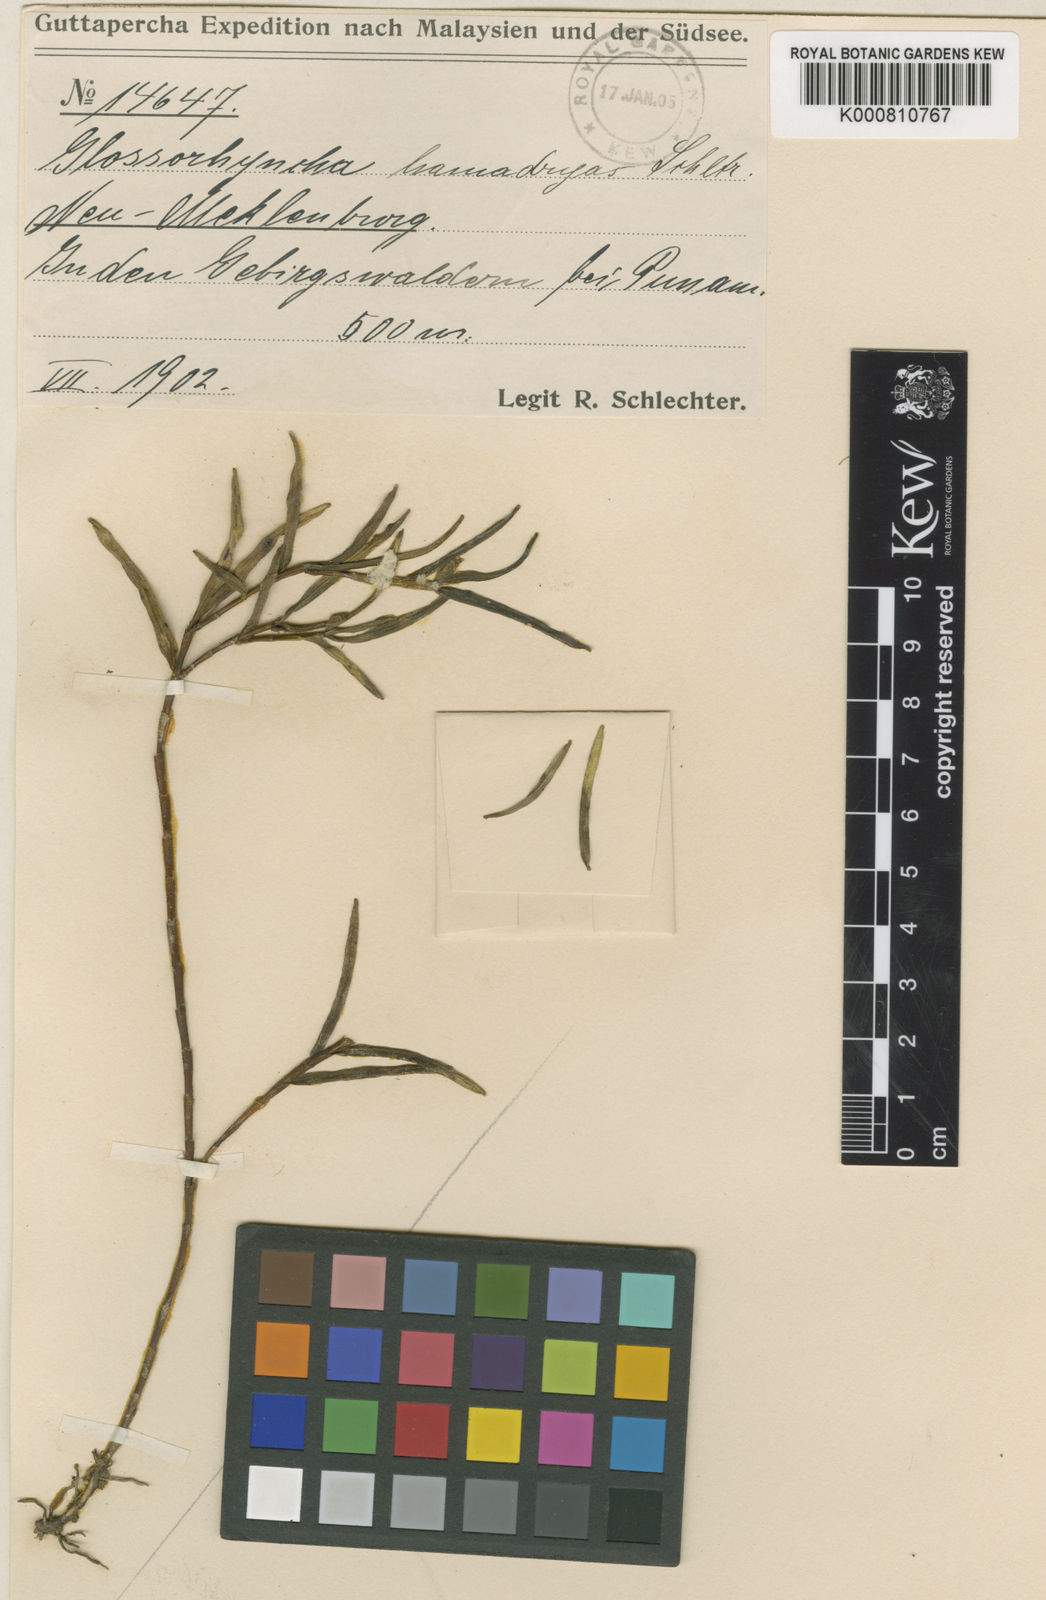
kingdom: Plantae
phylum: Tracheophyta
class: Liliopsida
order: Asparagales
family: Orchidaceae
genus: Glomera
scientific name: Glomera
